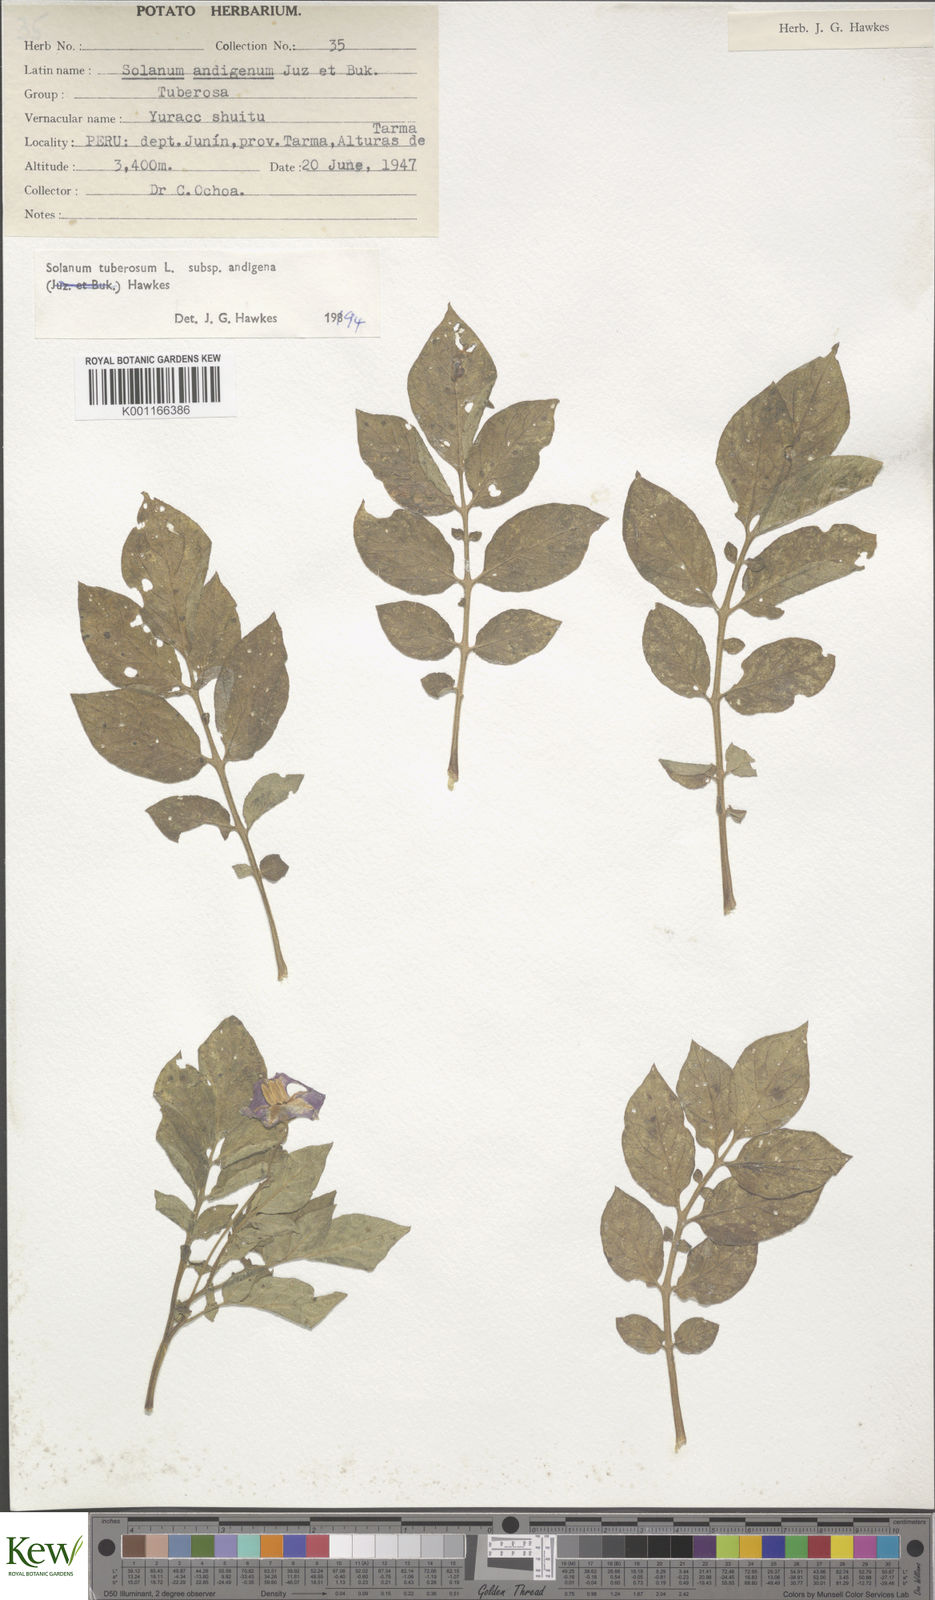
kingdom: Plantae
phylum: Tracheophyta
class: Magnoliopsida
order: Solanales
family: Solanaceae
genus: Solanum
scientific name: Solanum tuberosum
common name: Potato
